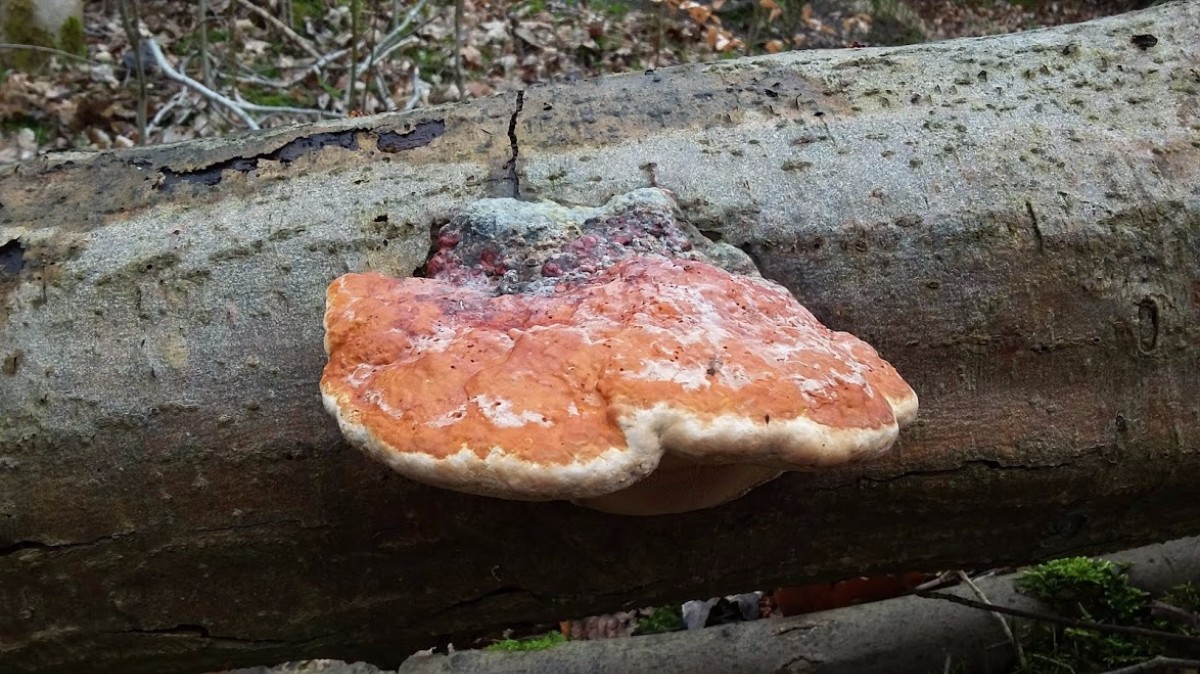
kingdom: Fungi
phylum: Basidiomycota
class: Agaricomycetes
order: Polyporales
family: Fomitopsidaceae
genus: Fomitopsis
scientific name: Fomitopsis pinicola
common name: randbæltet hovporesvamp
